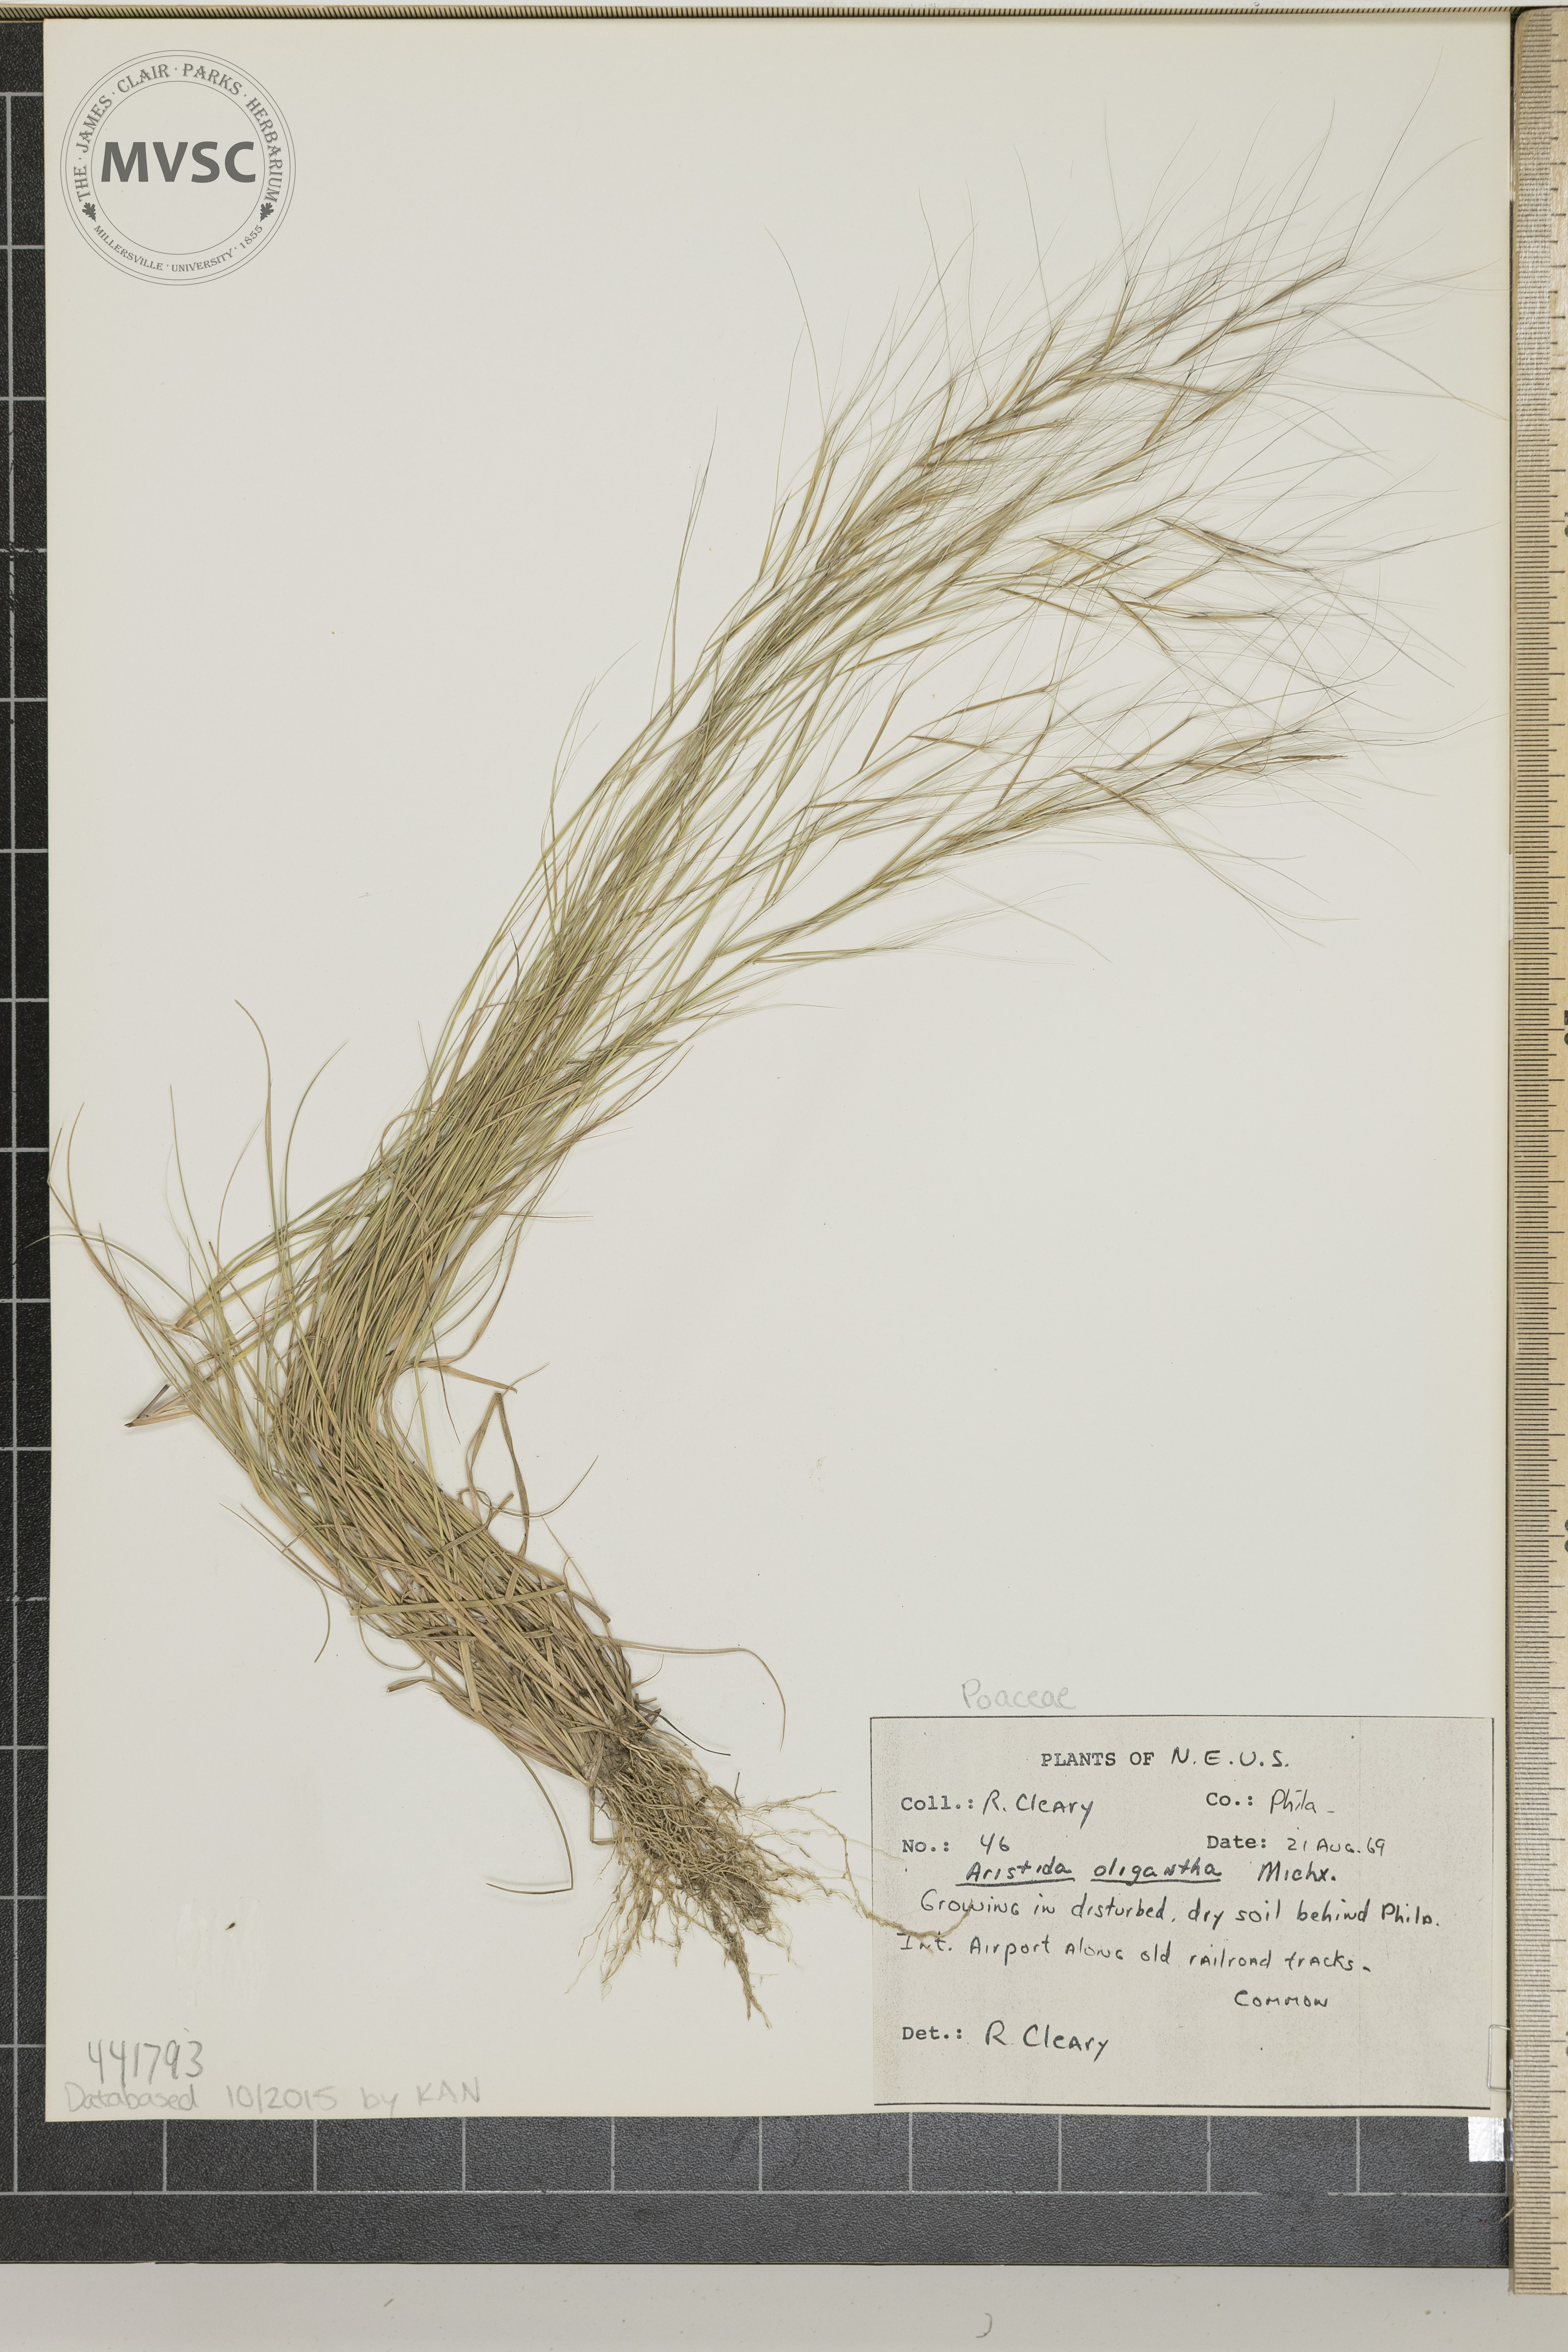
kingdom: Plantae
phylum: Tracheophyta
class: Liliopsida
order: Poales
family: Poaceae
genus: Aristida
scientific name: Aristida oligantha
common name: Few-flowered aristida
